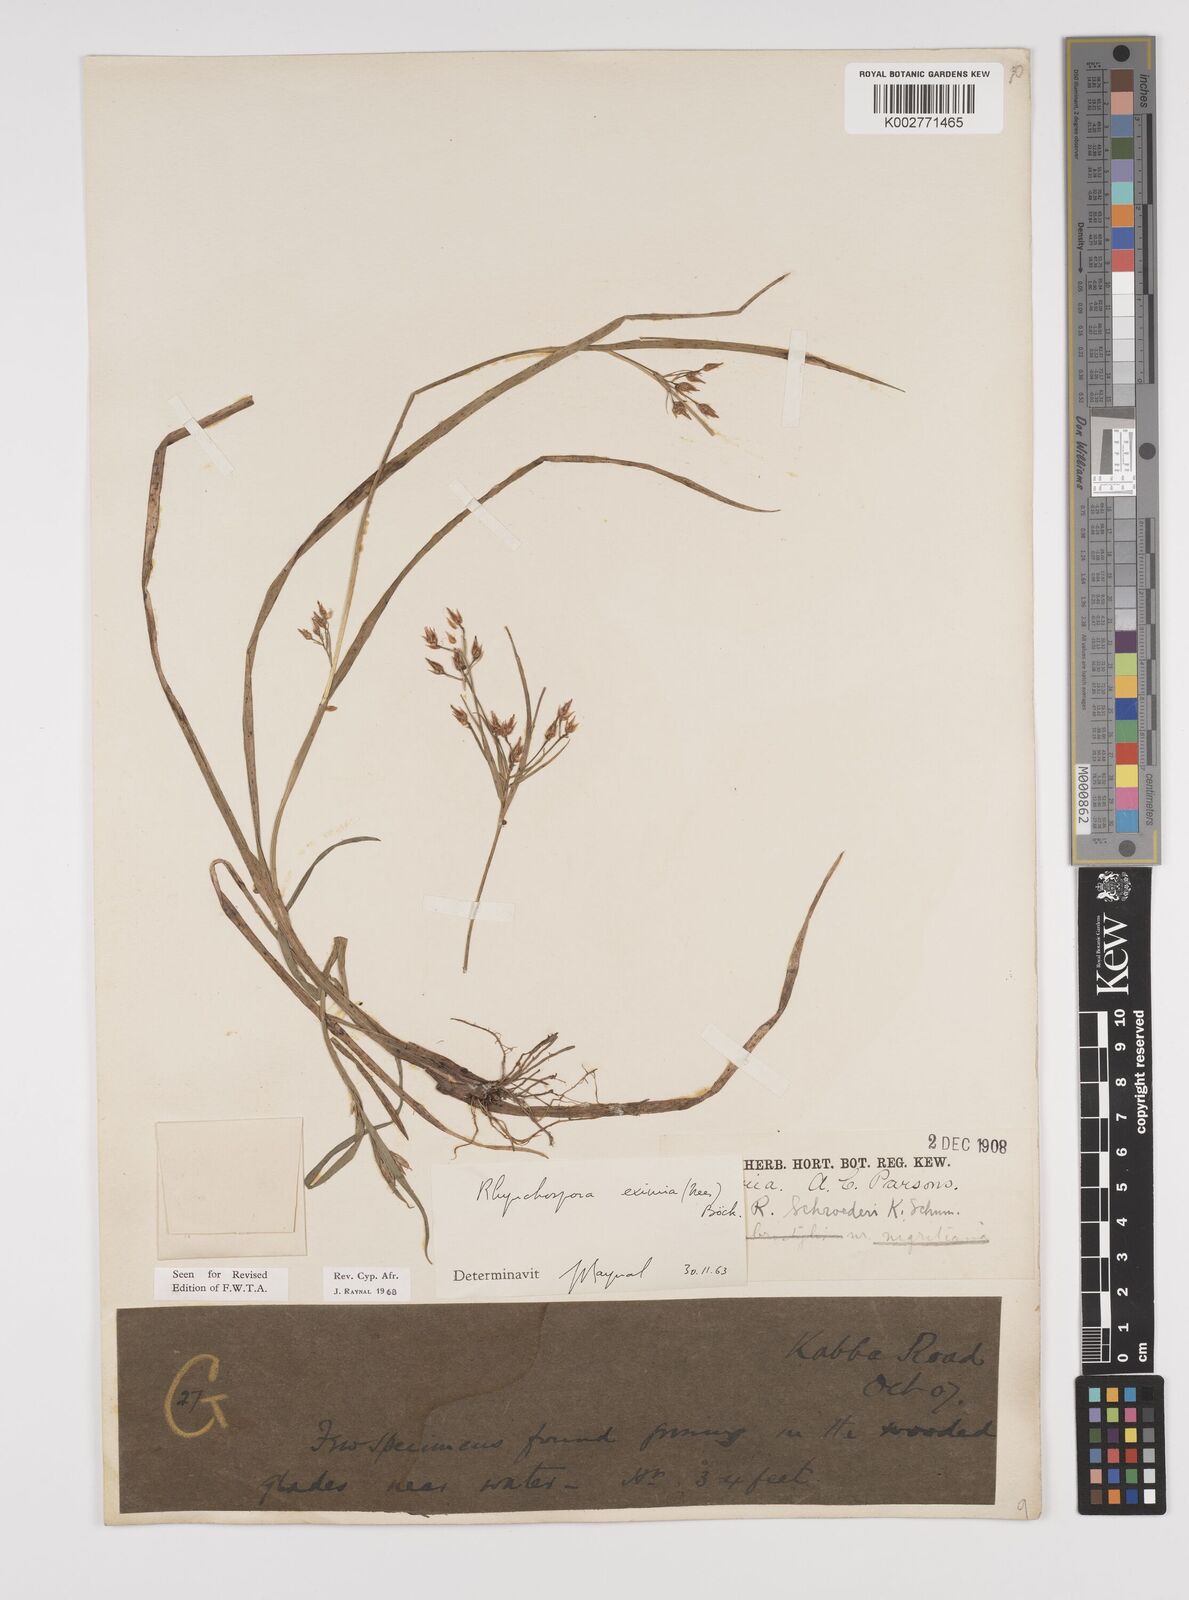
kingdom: Plantae
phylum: Tracheophyta
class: Liliopsida
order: Poales
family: Cyperaceae
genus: Rhynchospora
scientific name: Rhynchospora eximia
